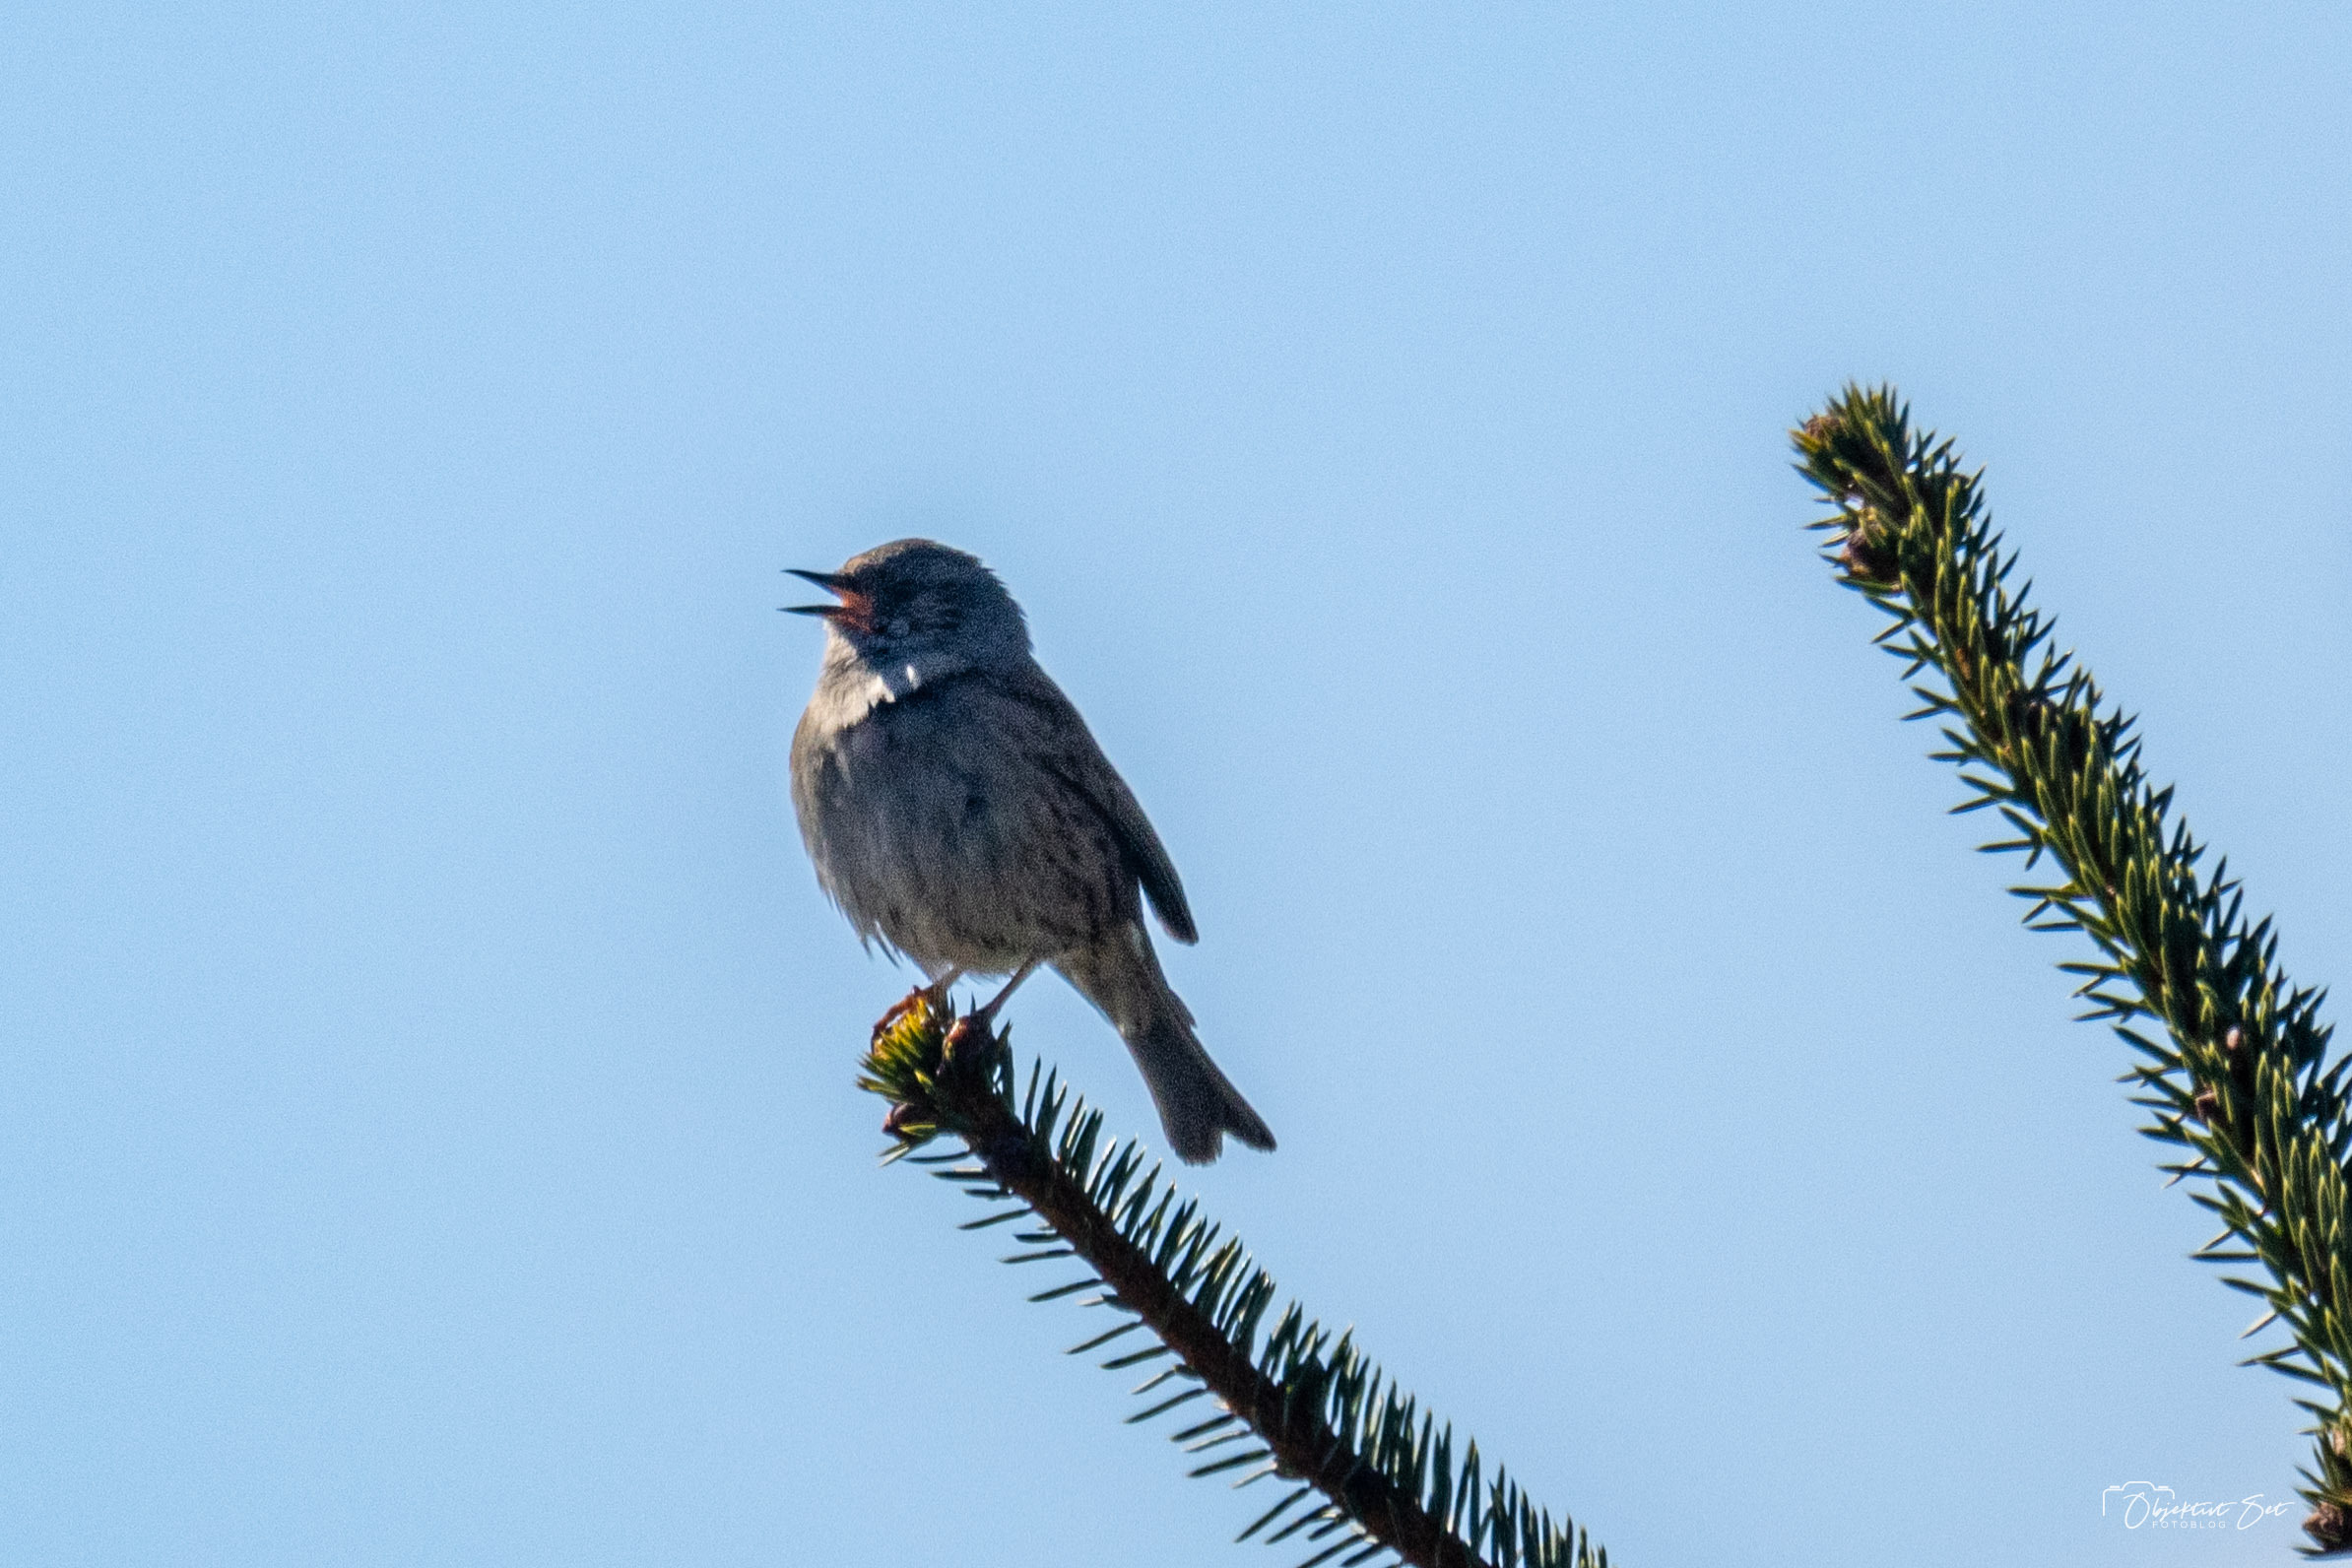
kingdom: Animalia
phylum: Chordata
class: Aves
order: Passeriformes
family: Prunellidae
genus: Prunella
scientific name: Prunella modularis
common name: Jernspurv
